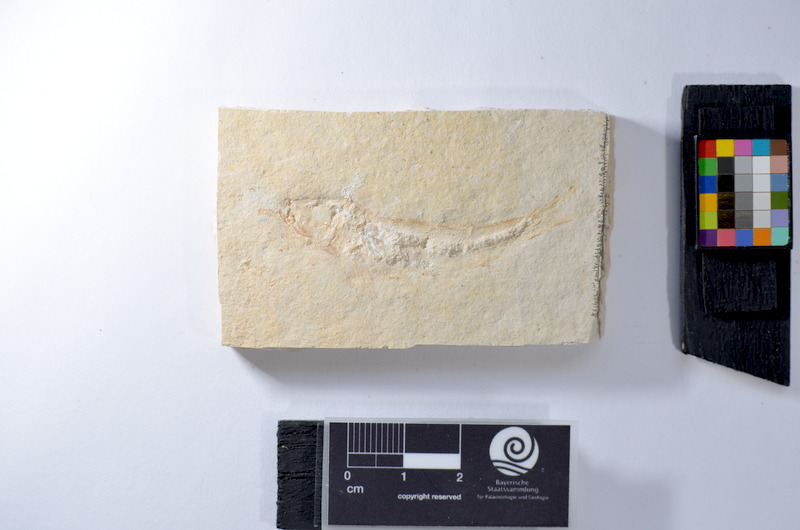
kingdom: Animalia
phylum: Chordata
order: Salmoniformes
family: Orthogonikleithridae
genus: Leptolepides
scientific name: Leptolepides
